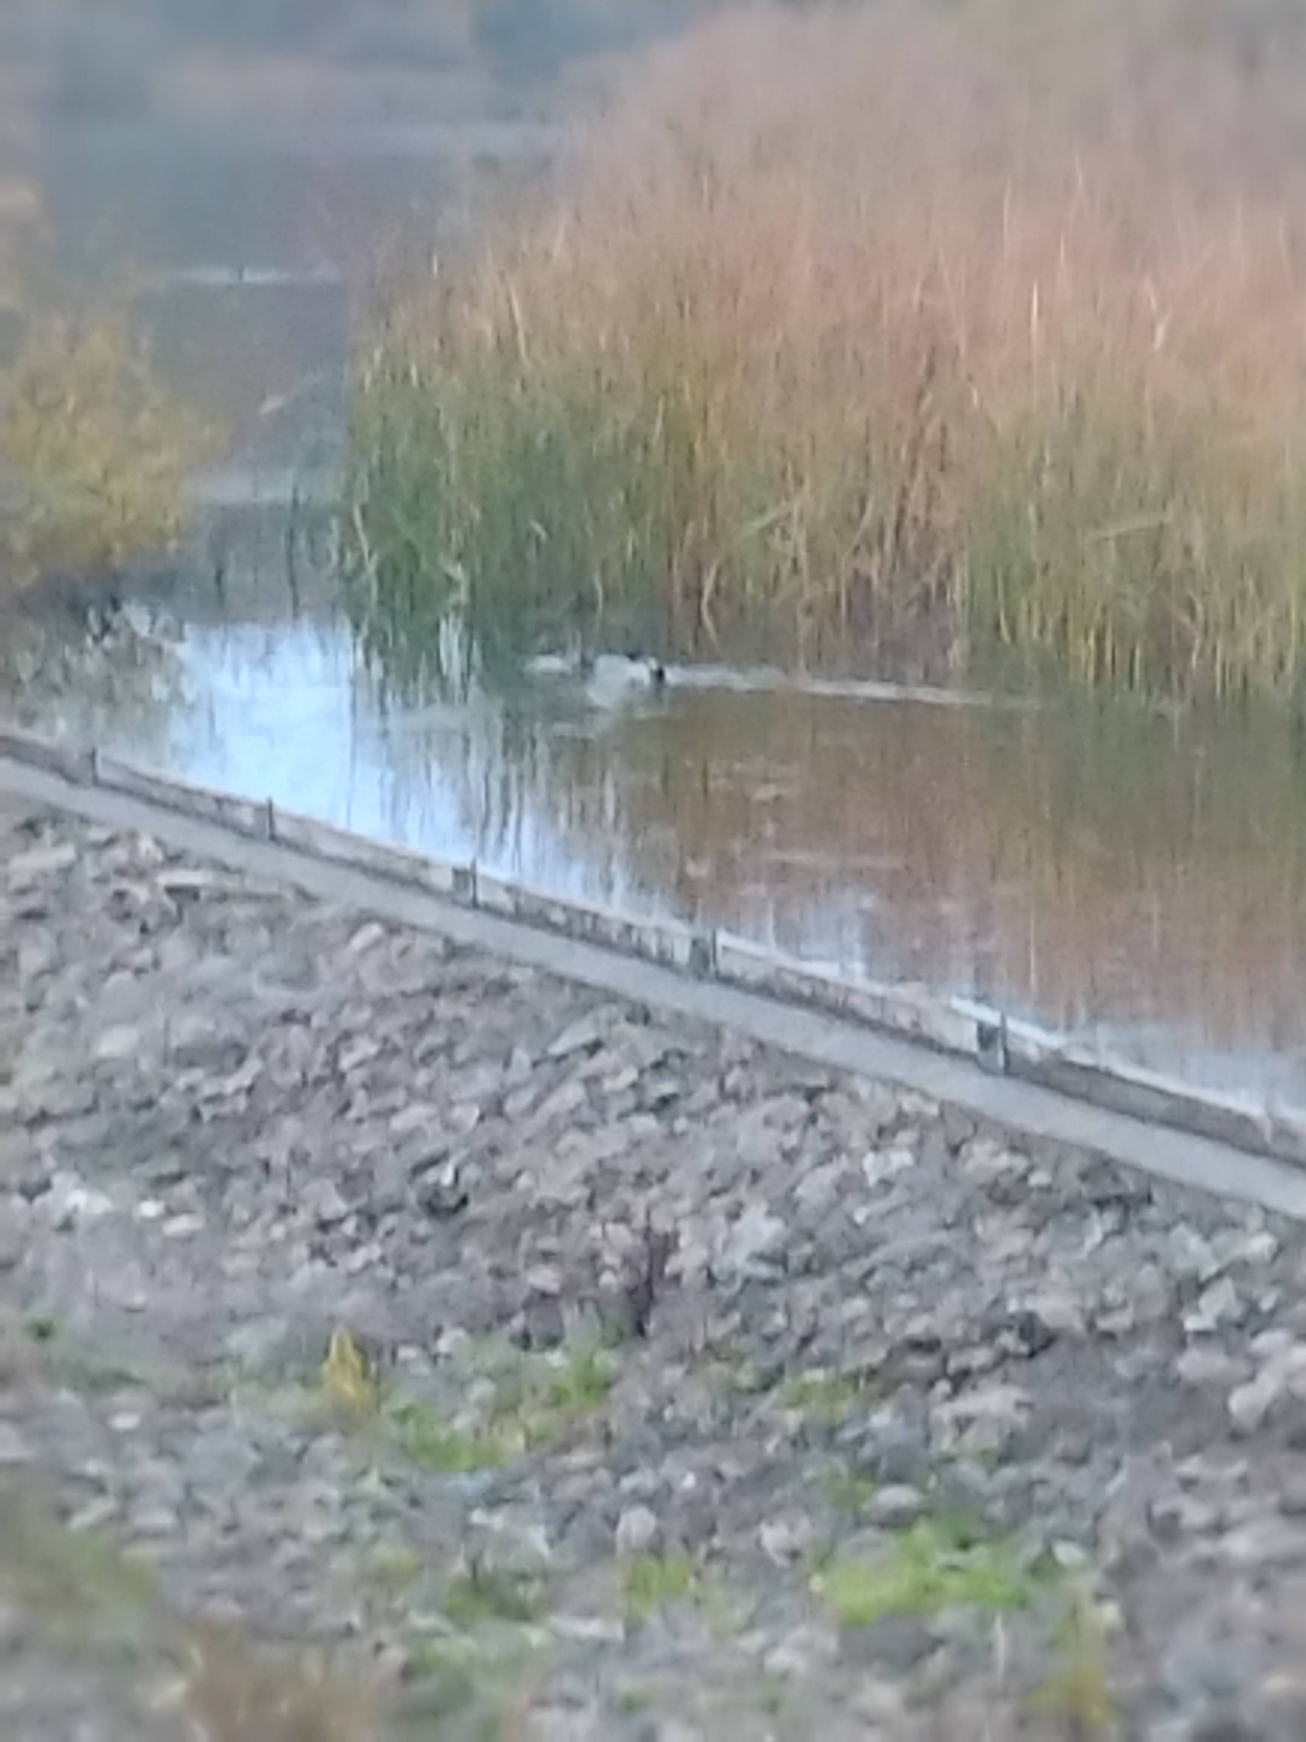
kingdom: Animalia
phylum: Chordata
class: Aves
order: Anseriformes
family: Anatidae
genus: Anas
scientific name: Anas platyrhynchos
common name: Gråand
